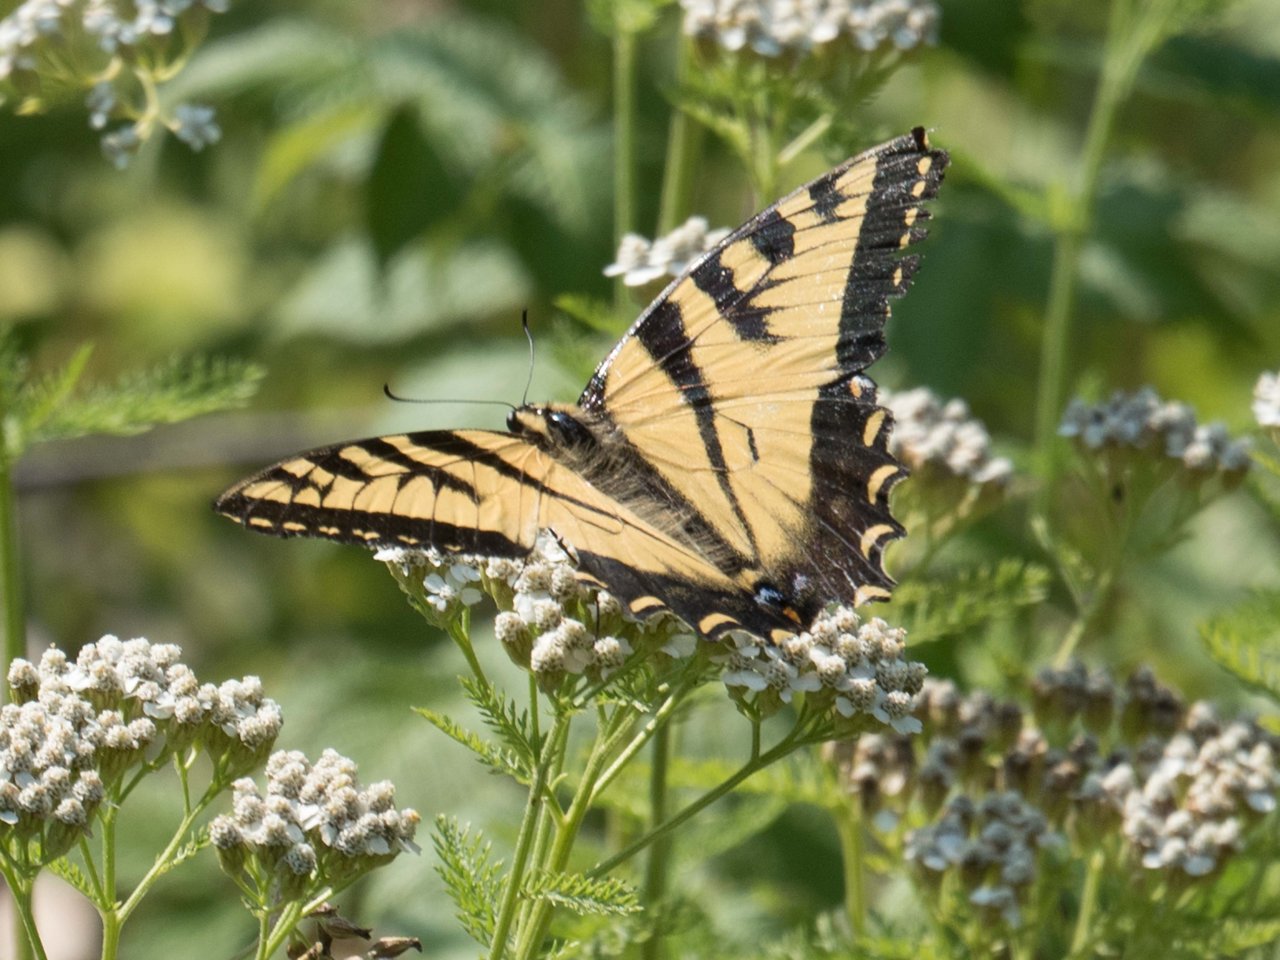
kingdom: Animalia
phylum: Arthropoda
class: Insecta
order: Lepidoptera
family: Papilionidae
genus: Pterourus
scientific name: Pterourus
